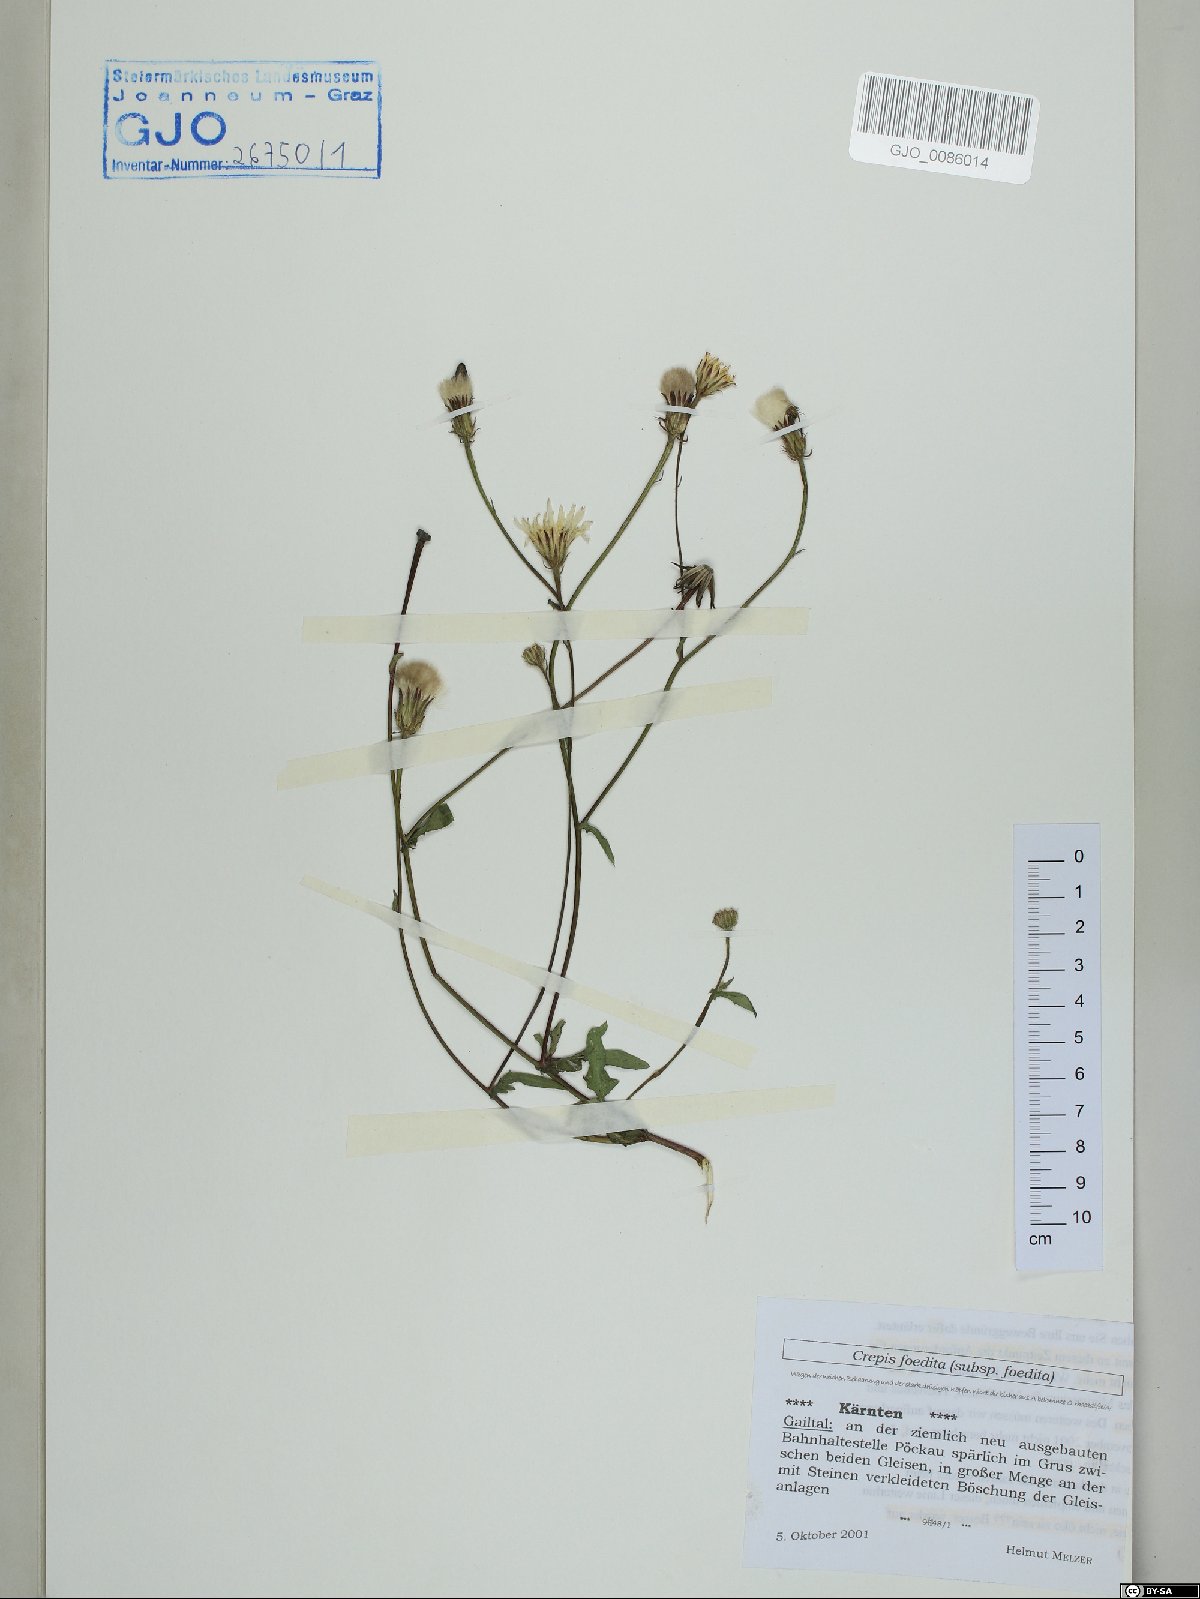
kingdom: Plantae
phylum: Tracheophyta
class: Magnoliopsida
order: Asterales
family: Asteraceae
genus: Crepis
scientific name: Crepis foetida
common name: Stinking hawk's-beard
